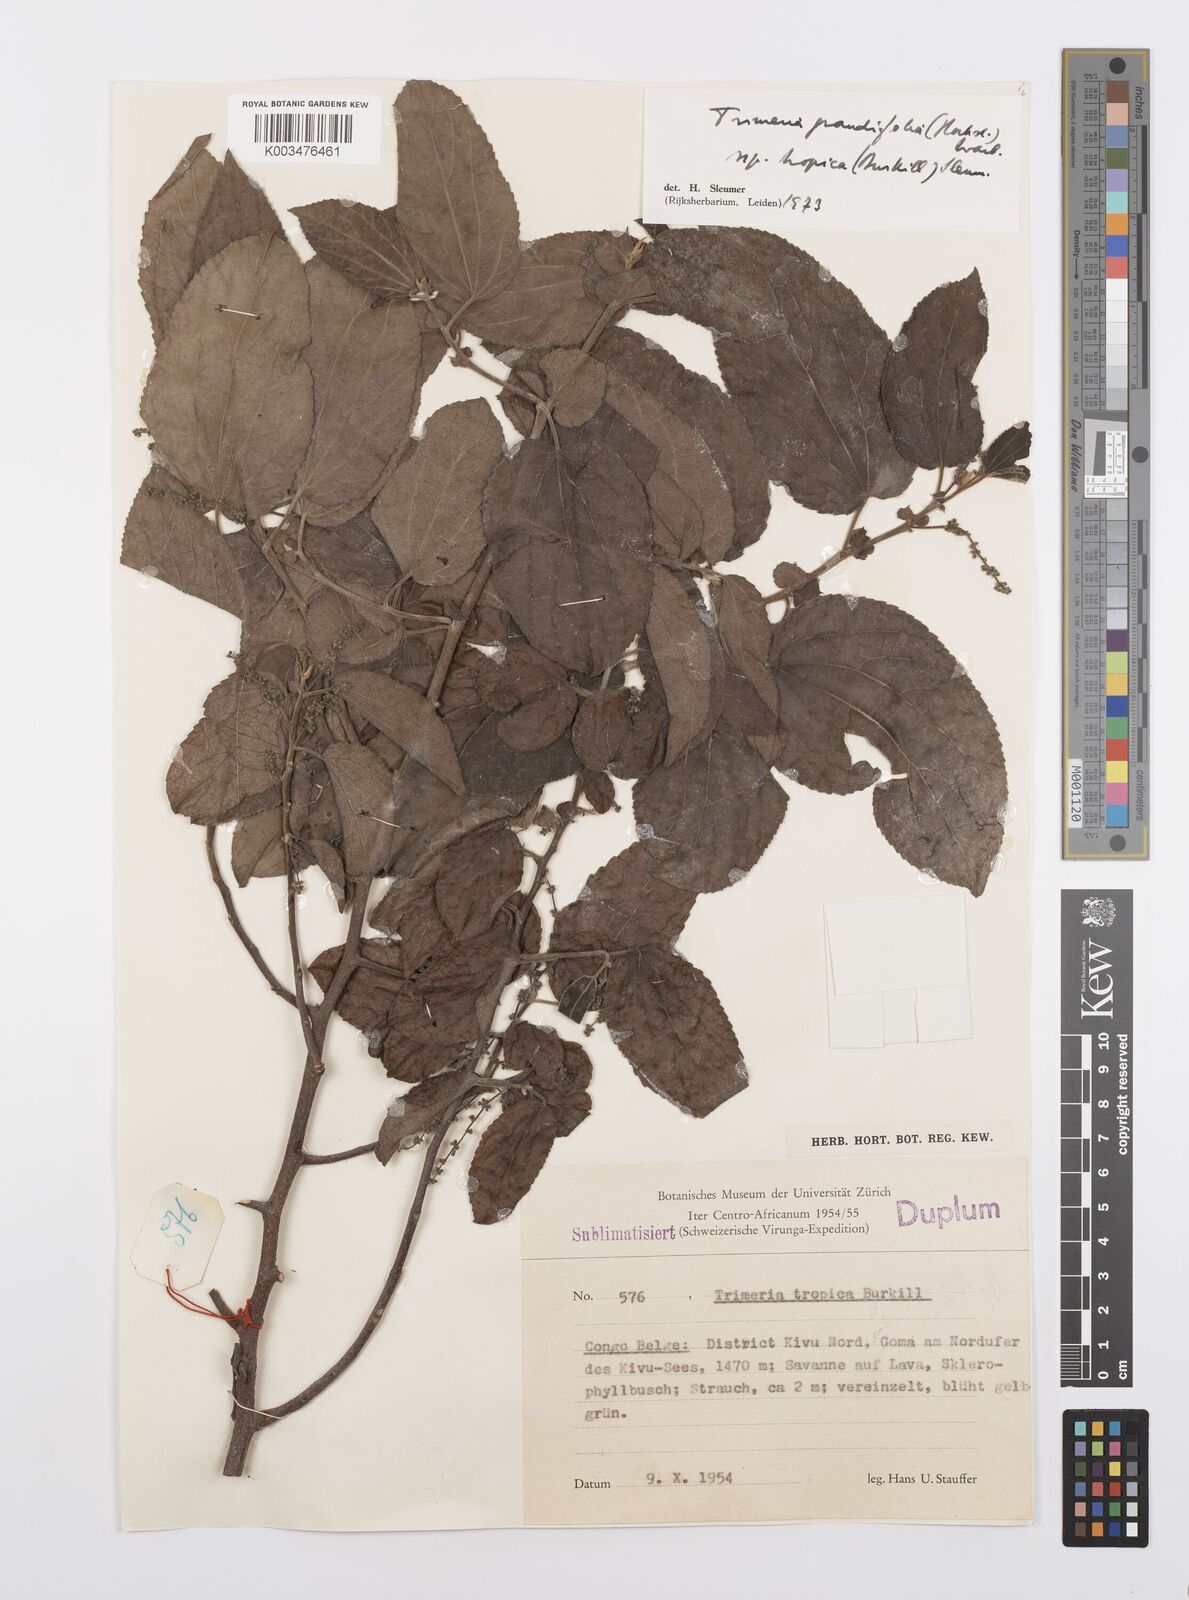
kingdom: Plantae
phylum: Tracheophyta
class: Magnoliopsida
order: Malpighiales
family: Salicaceae
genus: Trimeria
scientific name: Trimeria grandifolia
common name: Wild mulberry
